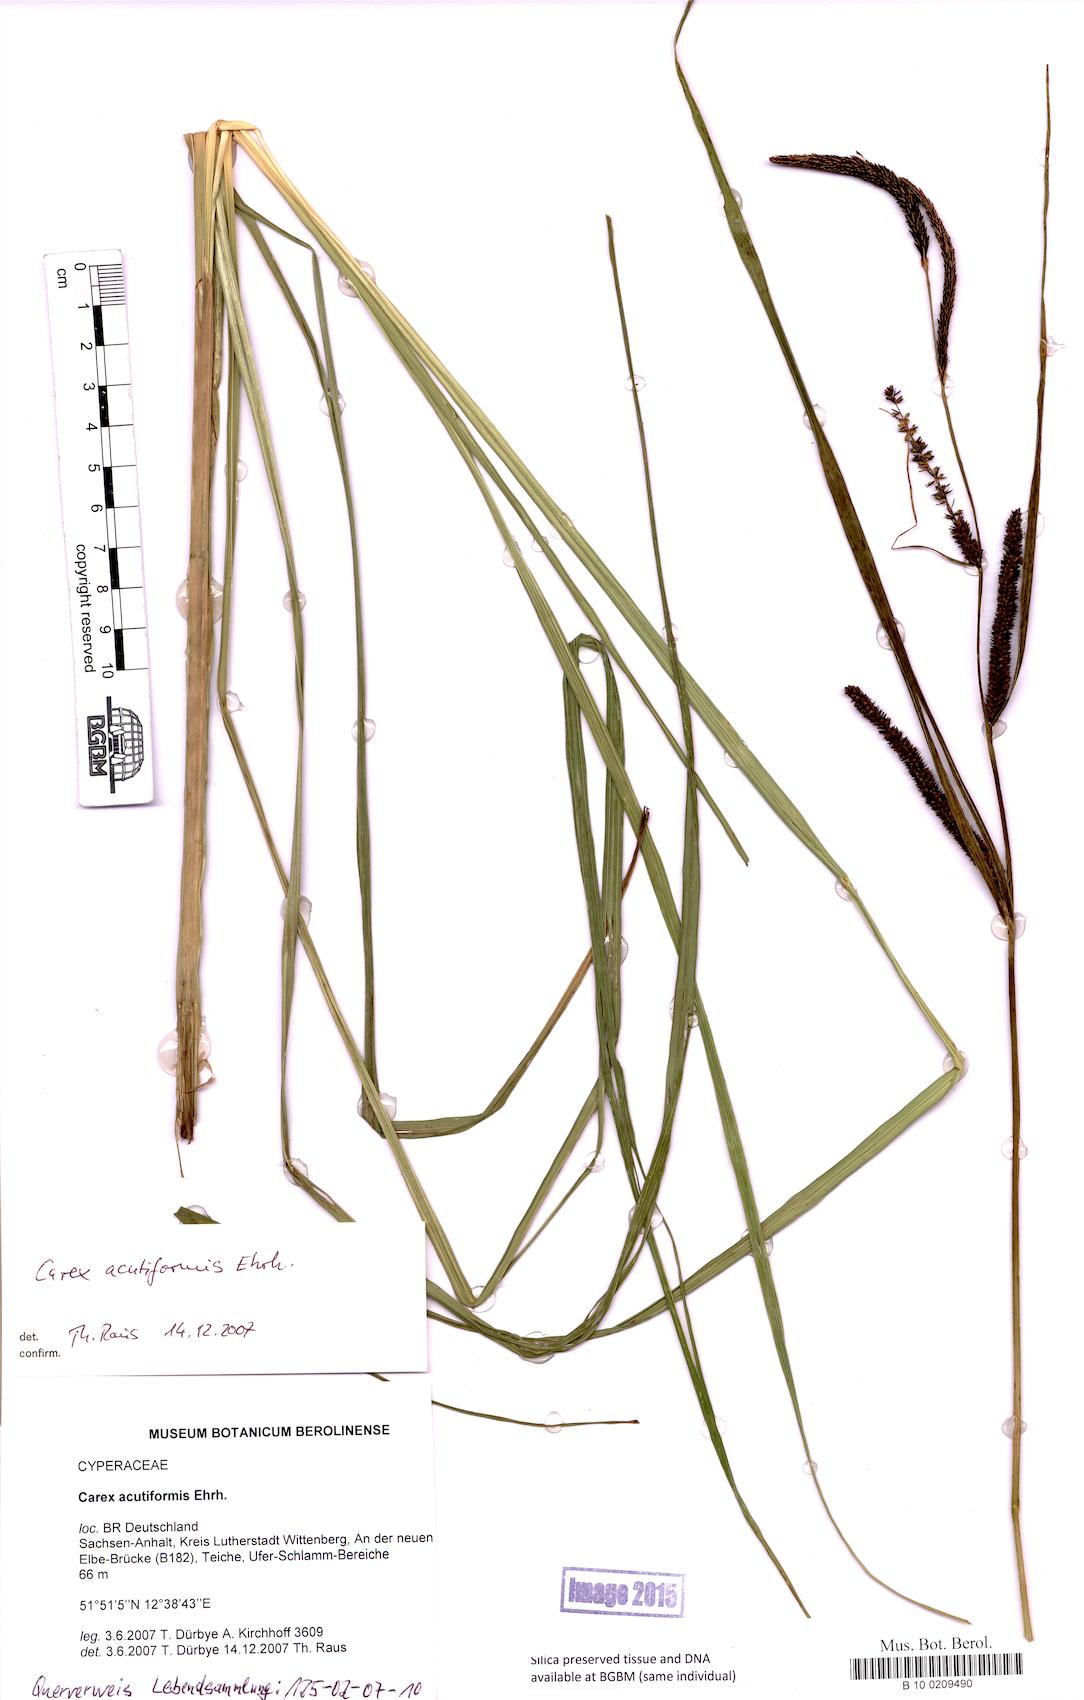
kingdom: Plantae
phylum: Tracheophyta
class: Liliopsida
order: Poales
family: Cyperaceae
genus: Carex
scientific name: Carex acutiformis
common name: Lesser pond-sedge
